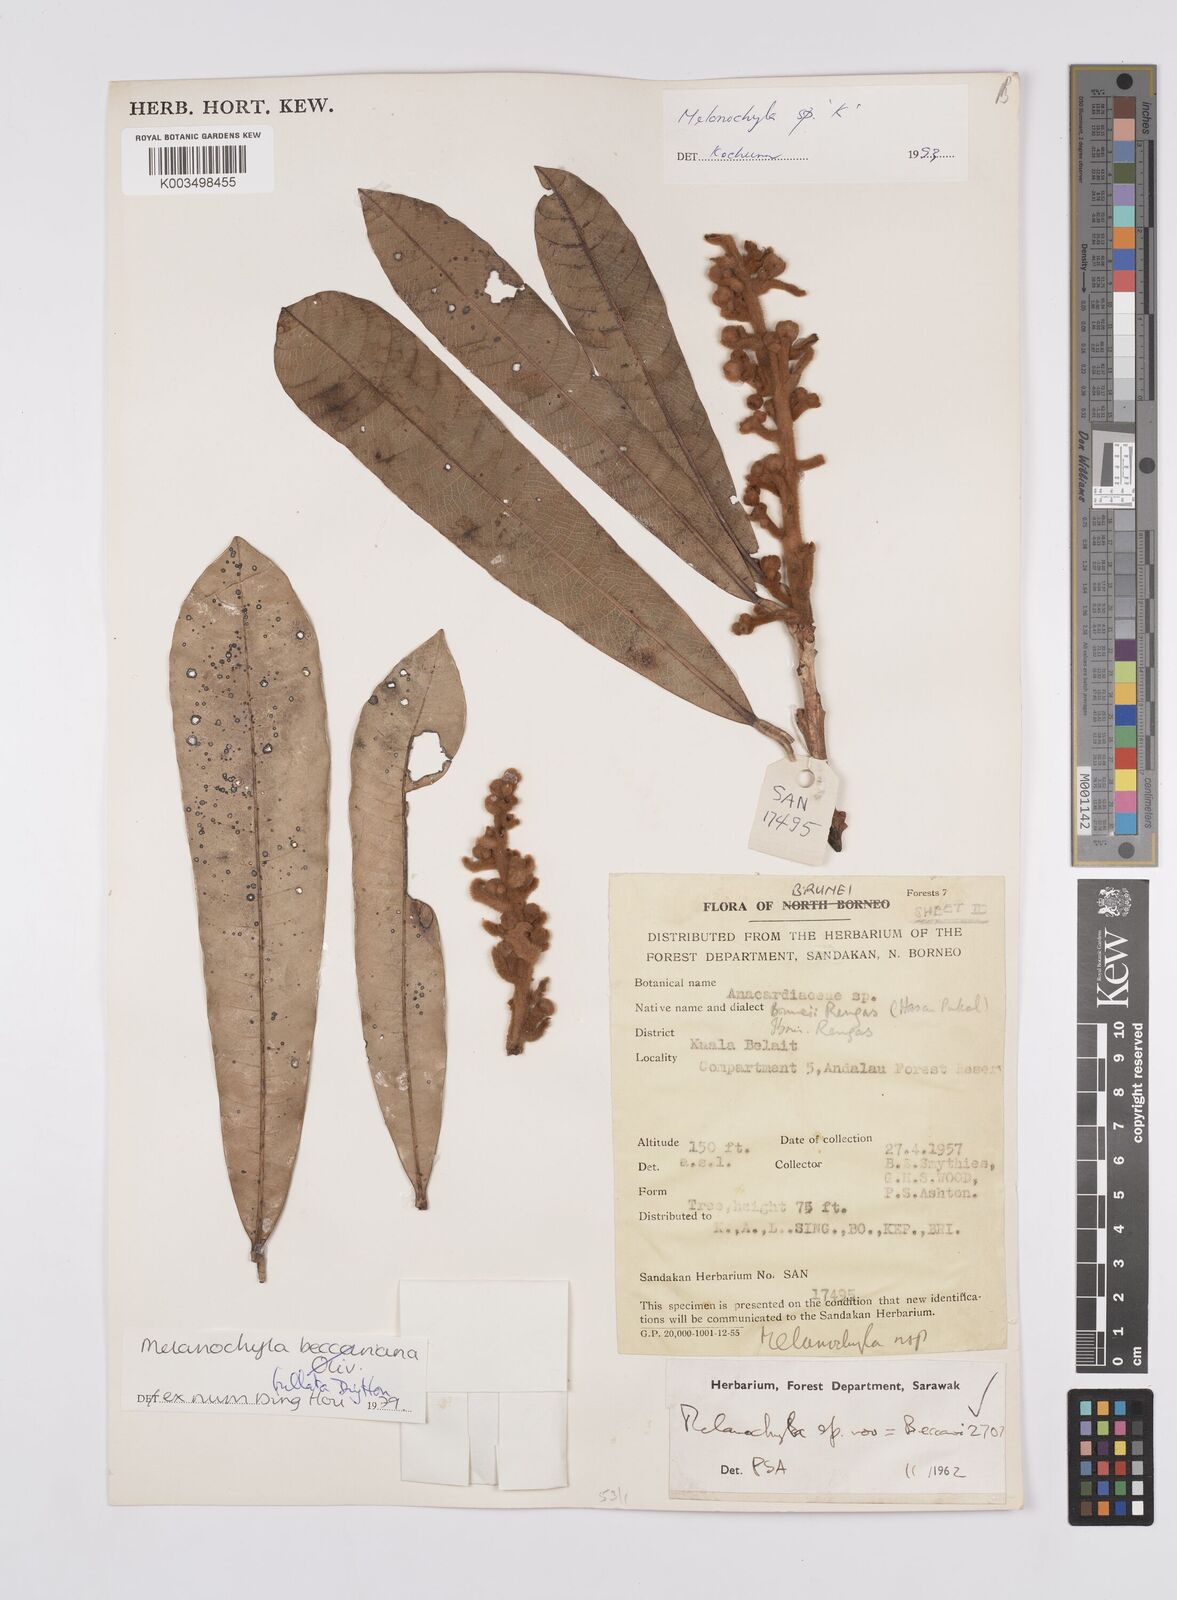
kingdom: Plantae
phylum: Tracheophyta
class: Magnoliopsida
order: Sapindales
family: Anacardiaceae
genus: Melanochyla
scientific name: Melanochyla bullata
